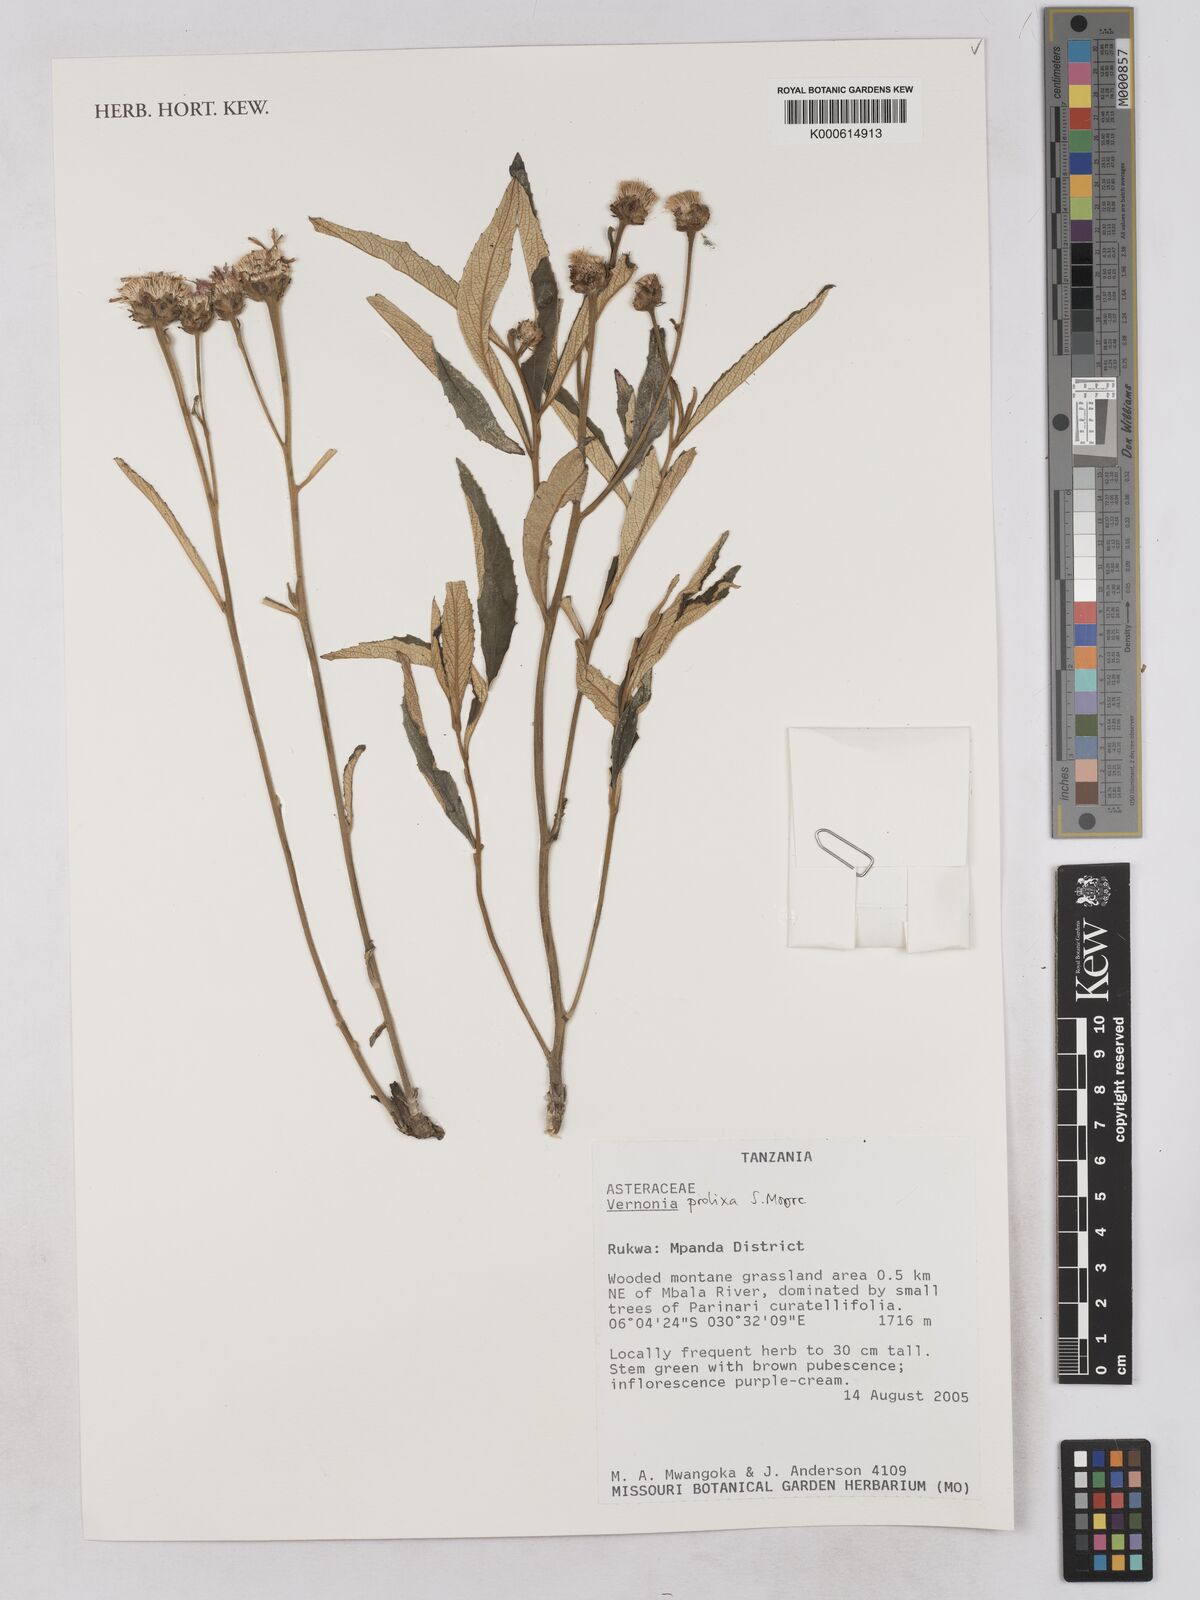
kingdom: Plantae
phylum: Tracheophyta
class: Magnoliopsida
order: Asterales
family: Asteraceae
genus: Baccharoides
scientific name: Baccharoides prolixa
